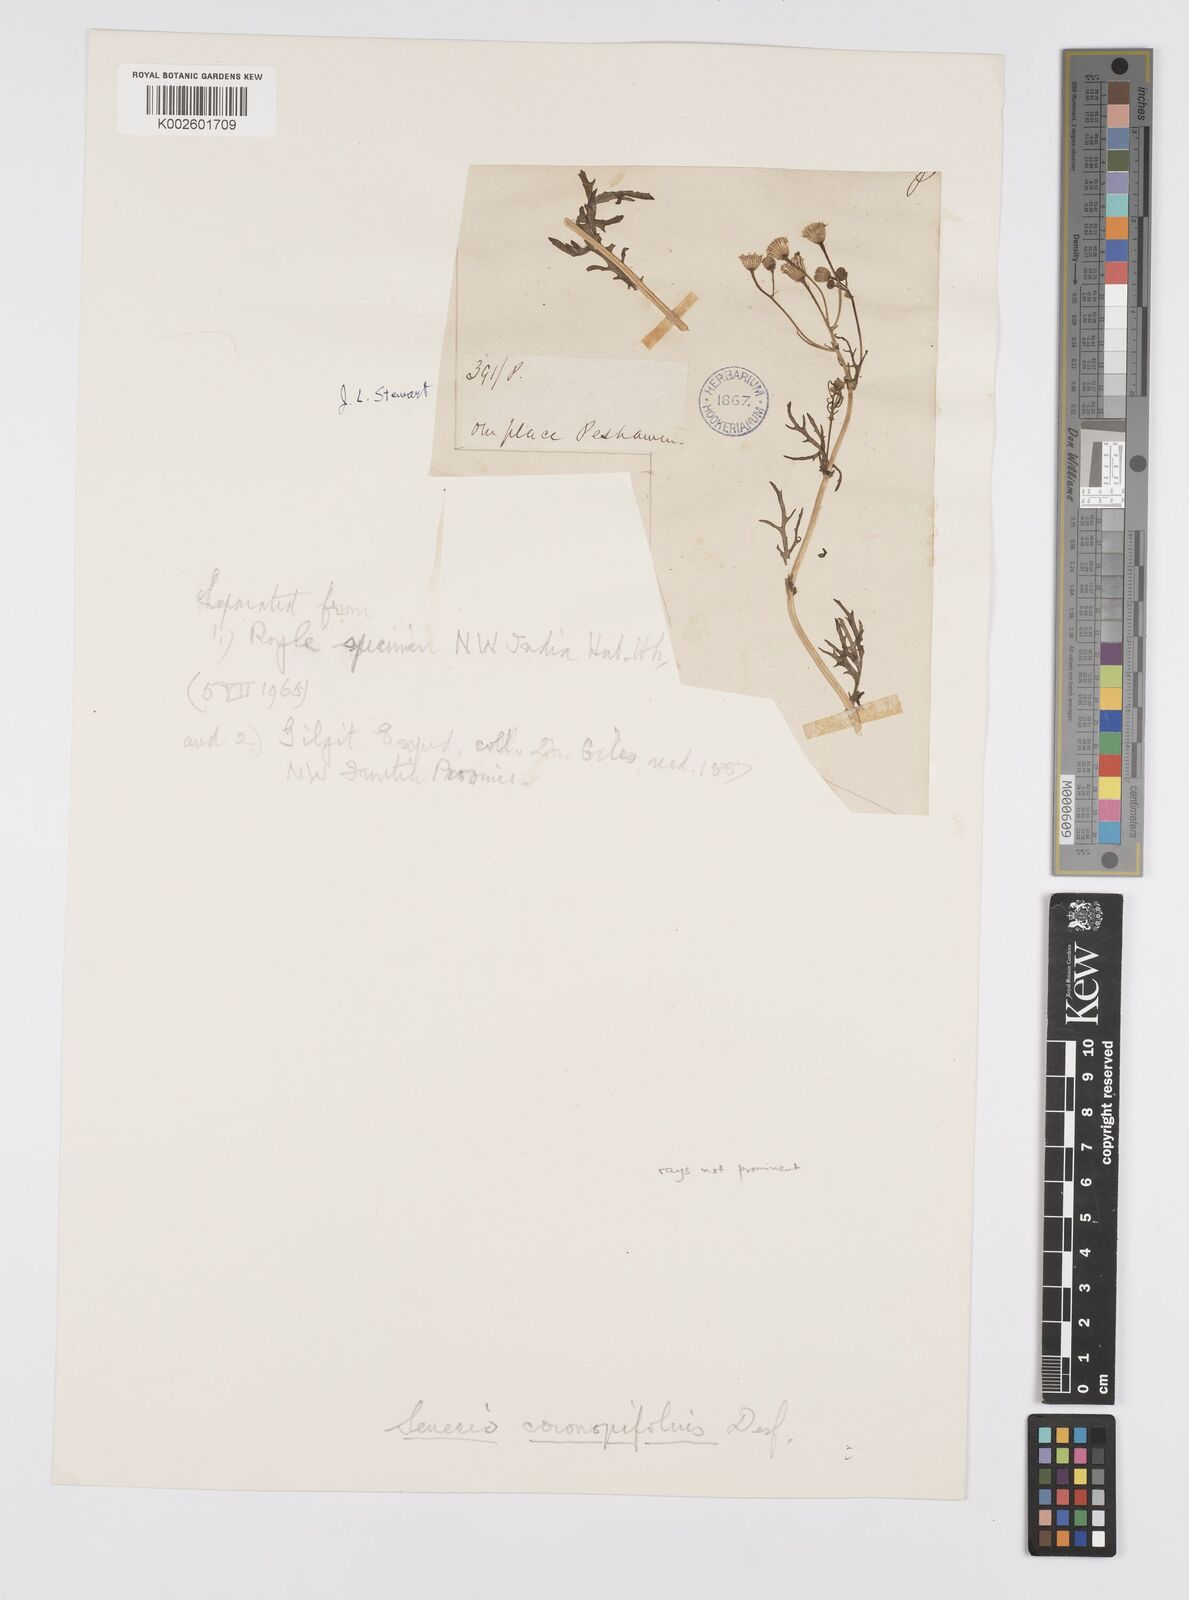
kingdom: Plantae
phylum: Tracheophyta
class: Magnoliopsida
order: Asterales
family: Asteraceae
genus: Senecio
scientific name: Senecio glaucus
